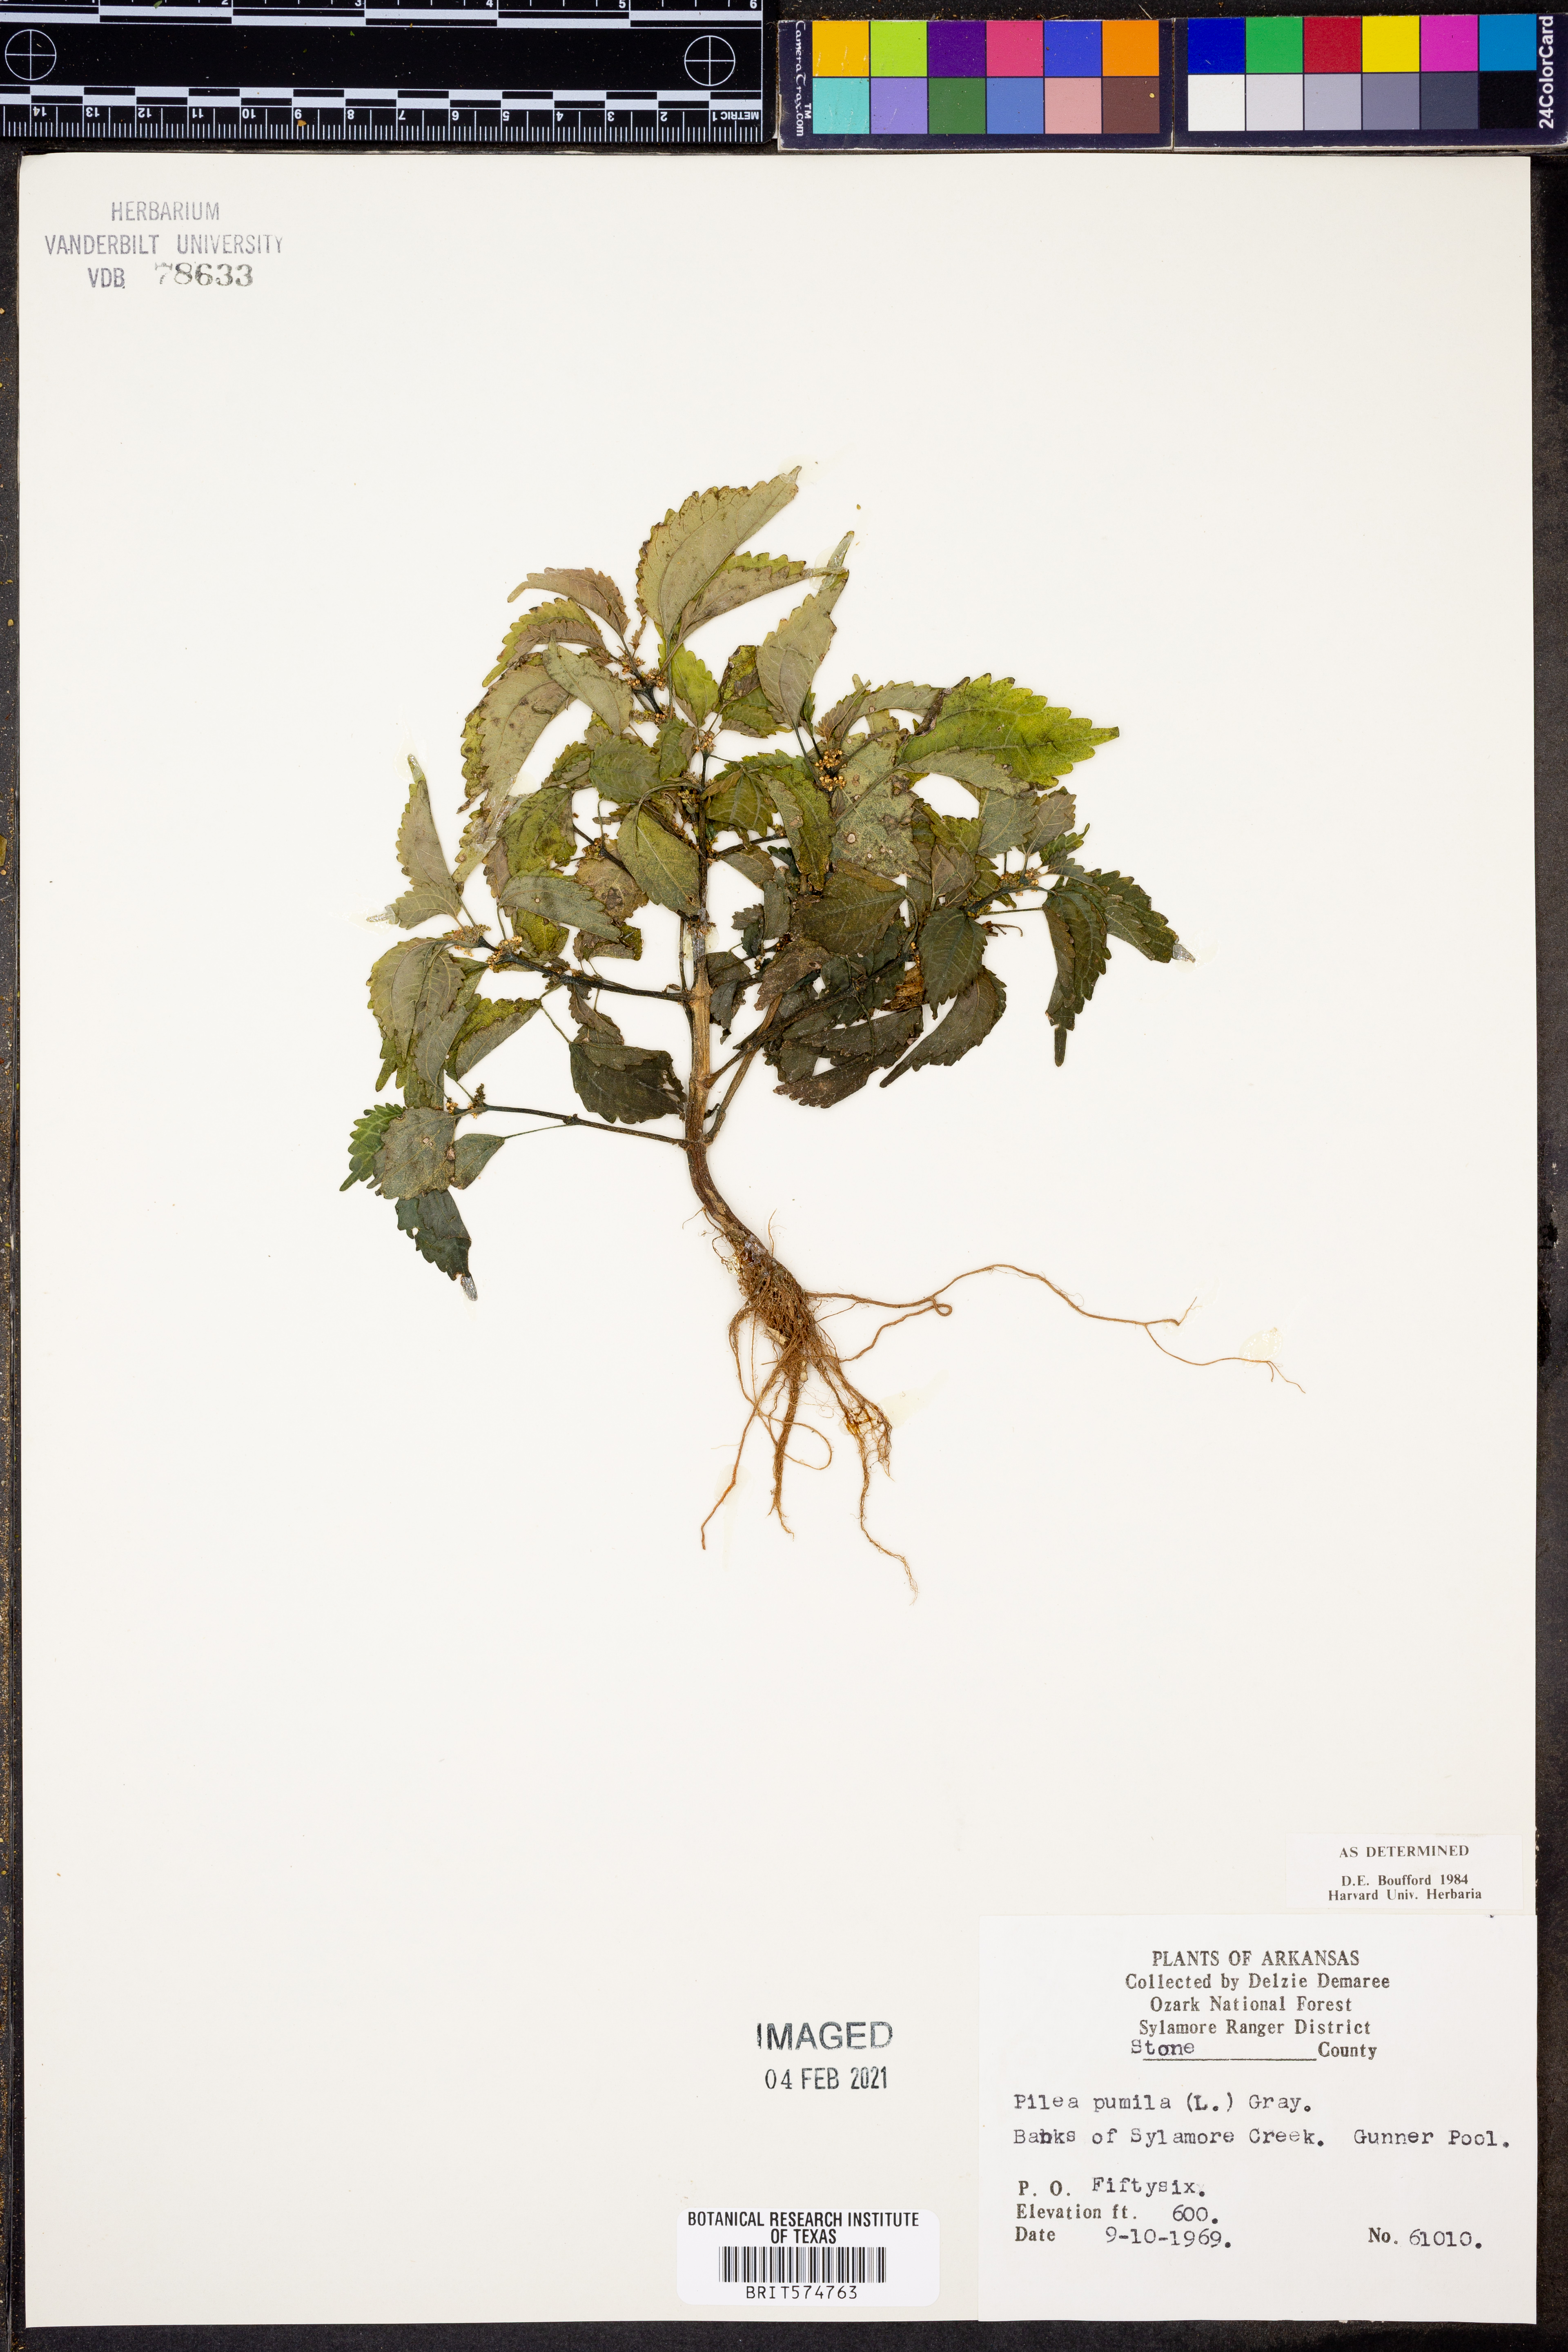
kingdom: Plantae
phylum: Tracheophyta
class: Magnoliopsida
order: Rosales
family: Urticaceae
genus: Pilea
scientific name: Pilea pumila
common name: Clearweed
